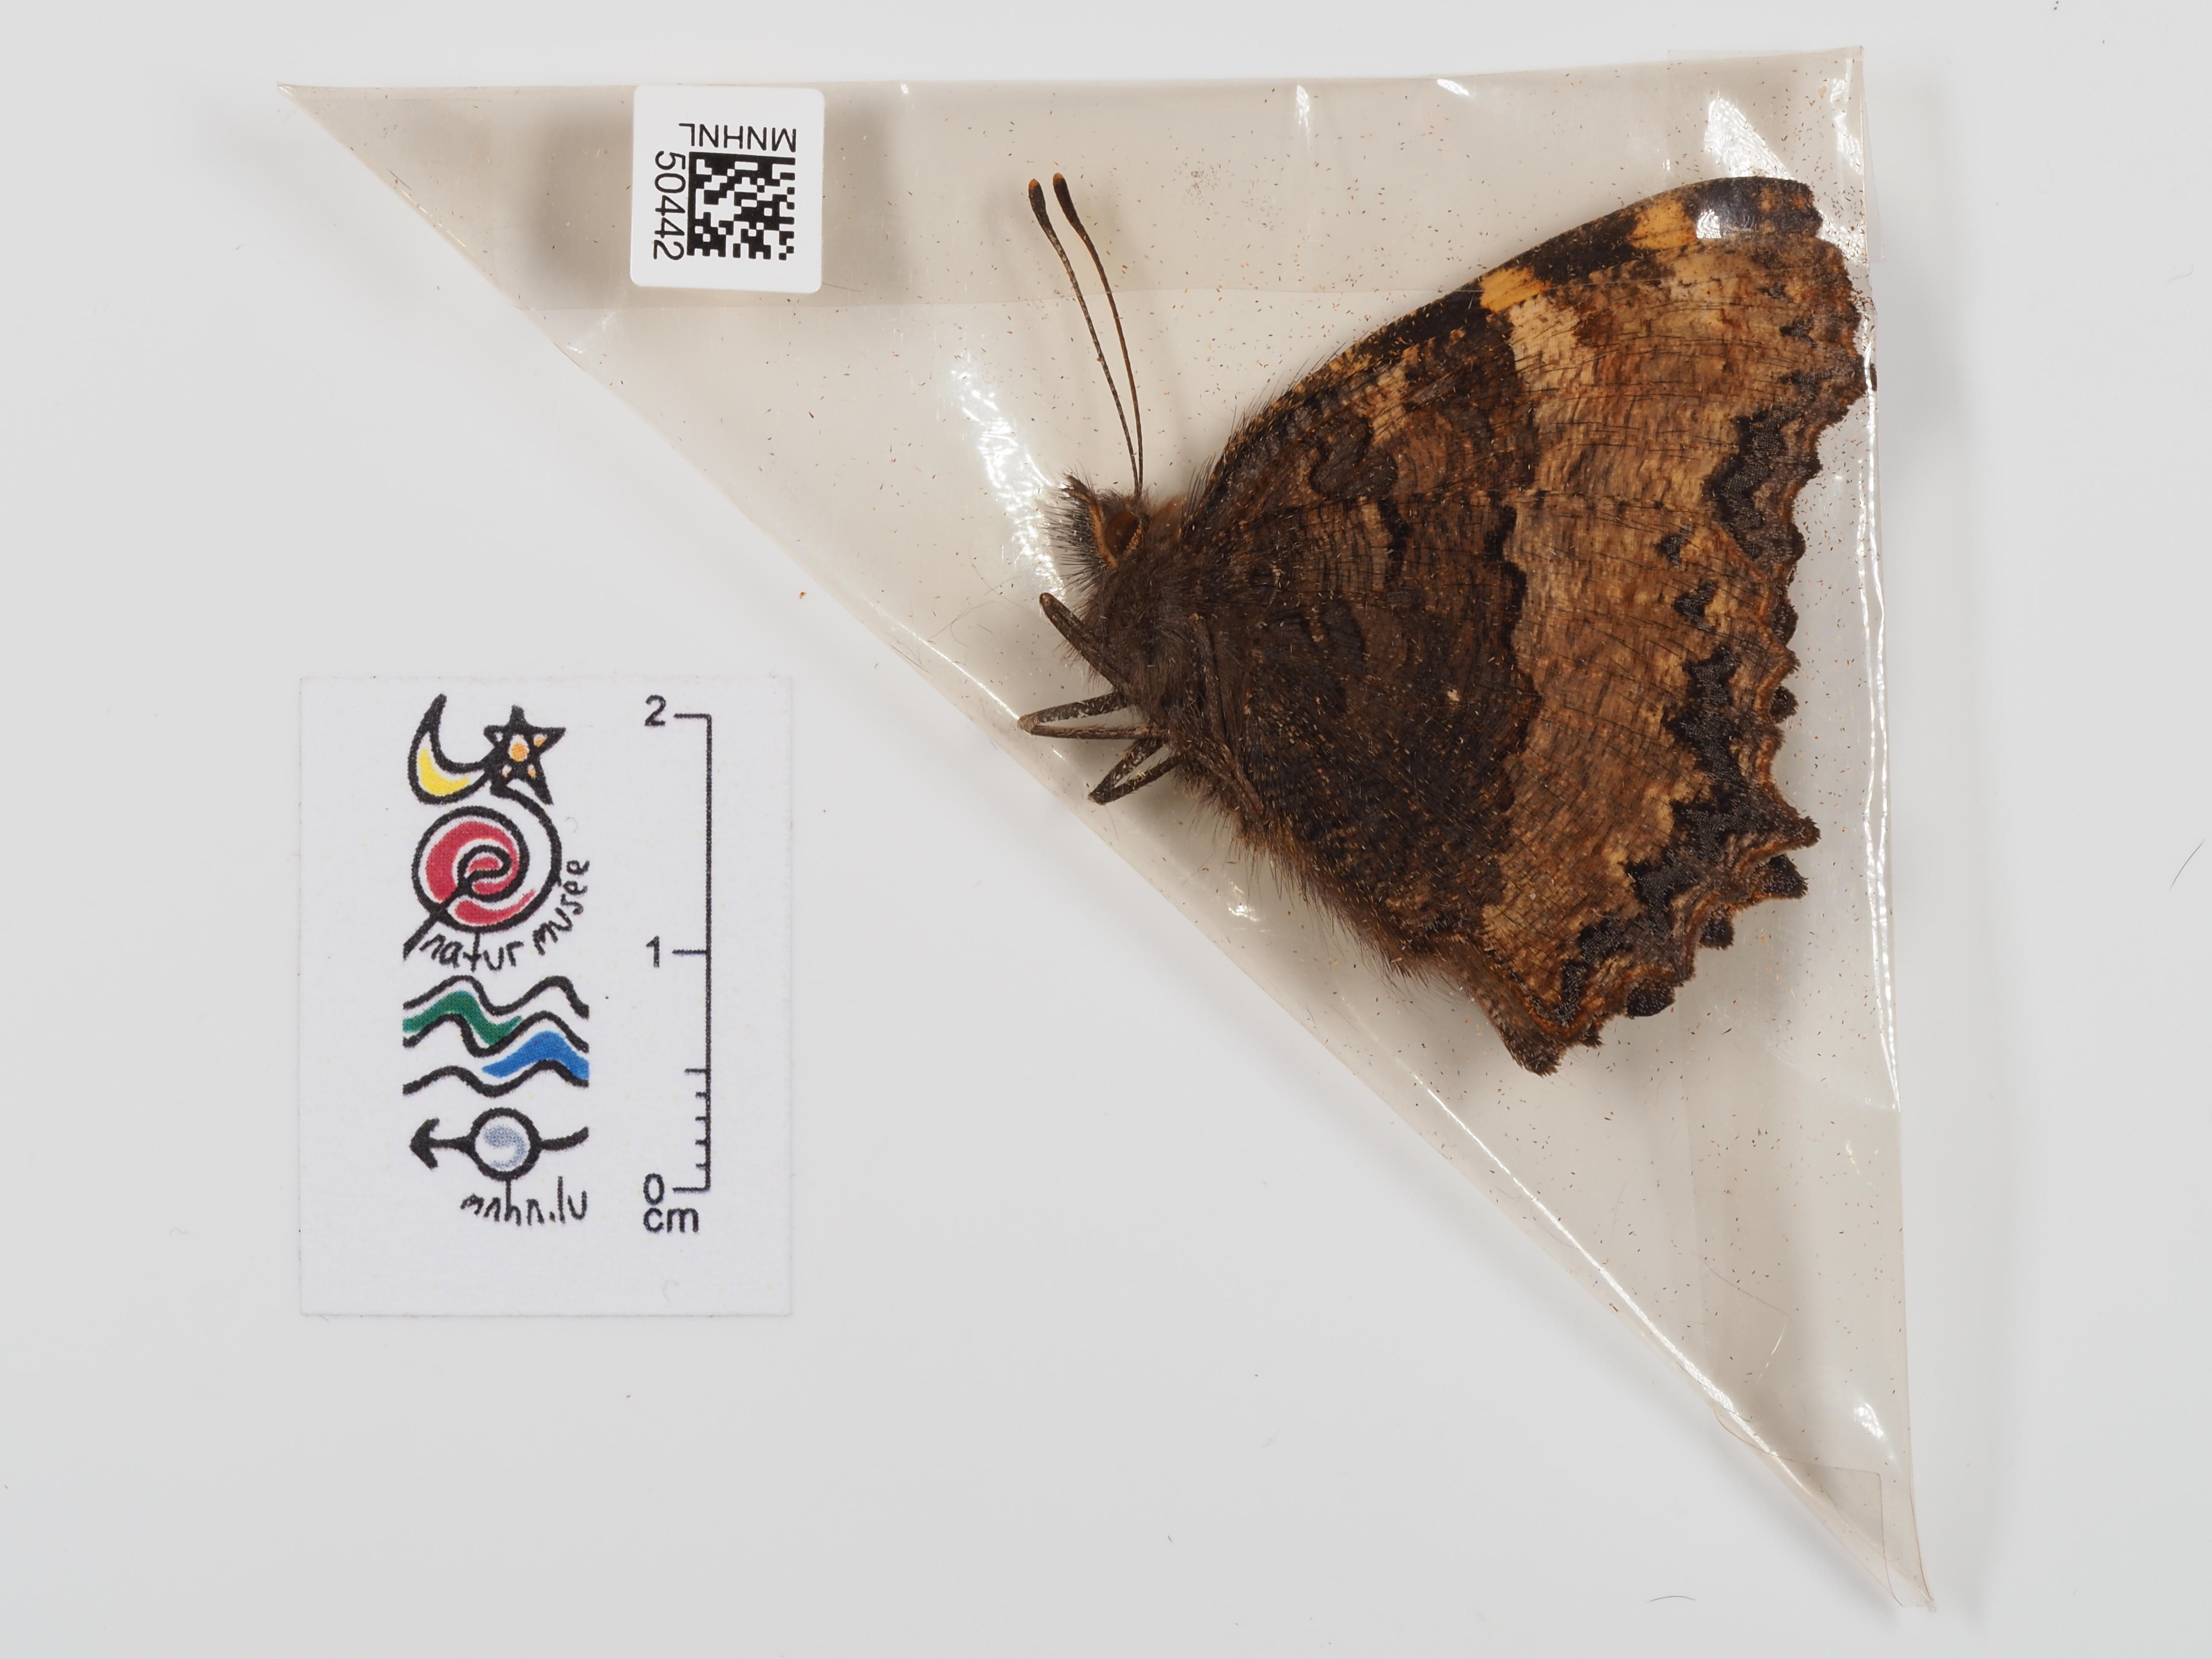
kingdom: Animalia
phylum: Arthropoda
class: Insecta
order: Lepidoptera
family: Nymphalidae
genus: Nymphalis
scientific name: Nymphalis polychloros
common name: Large tortoiseshell
